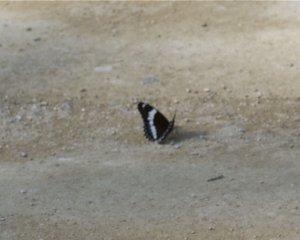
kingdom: Animalia
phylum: Arthropoda
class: Insecta
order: Lepidoptera
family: Nymphalidae
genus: Limenitis
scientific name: Limenitis arthemis
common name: Red-spotted Admiral
